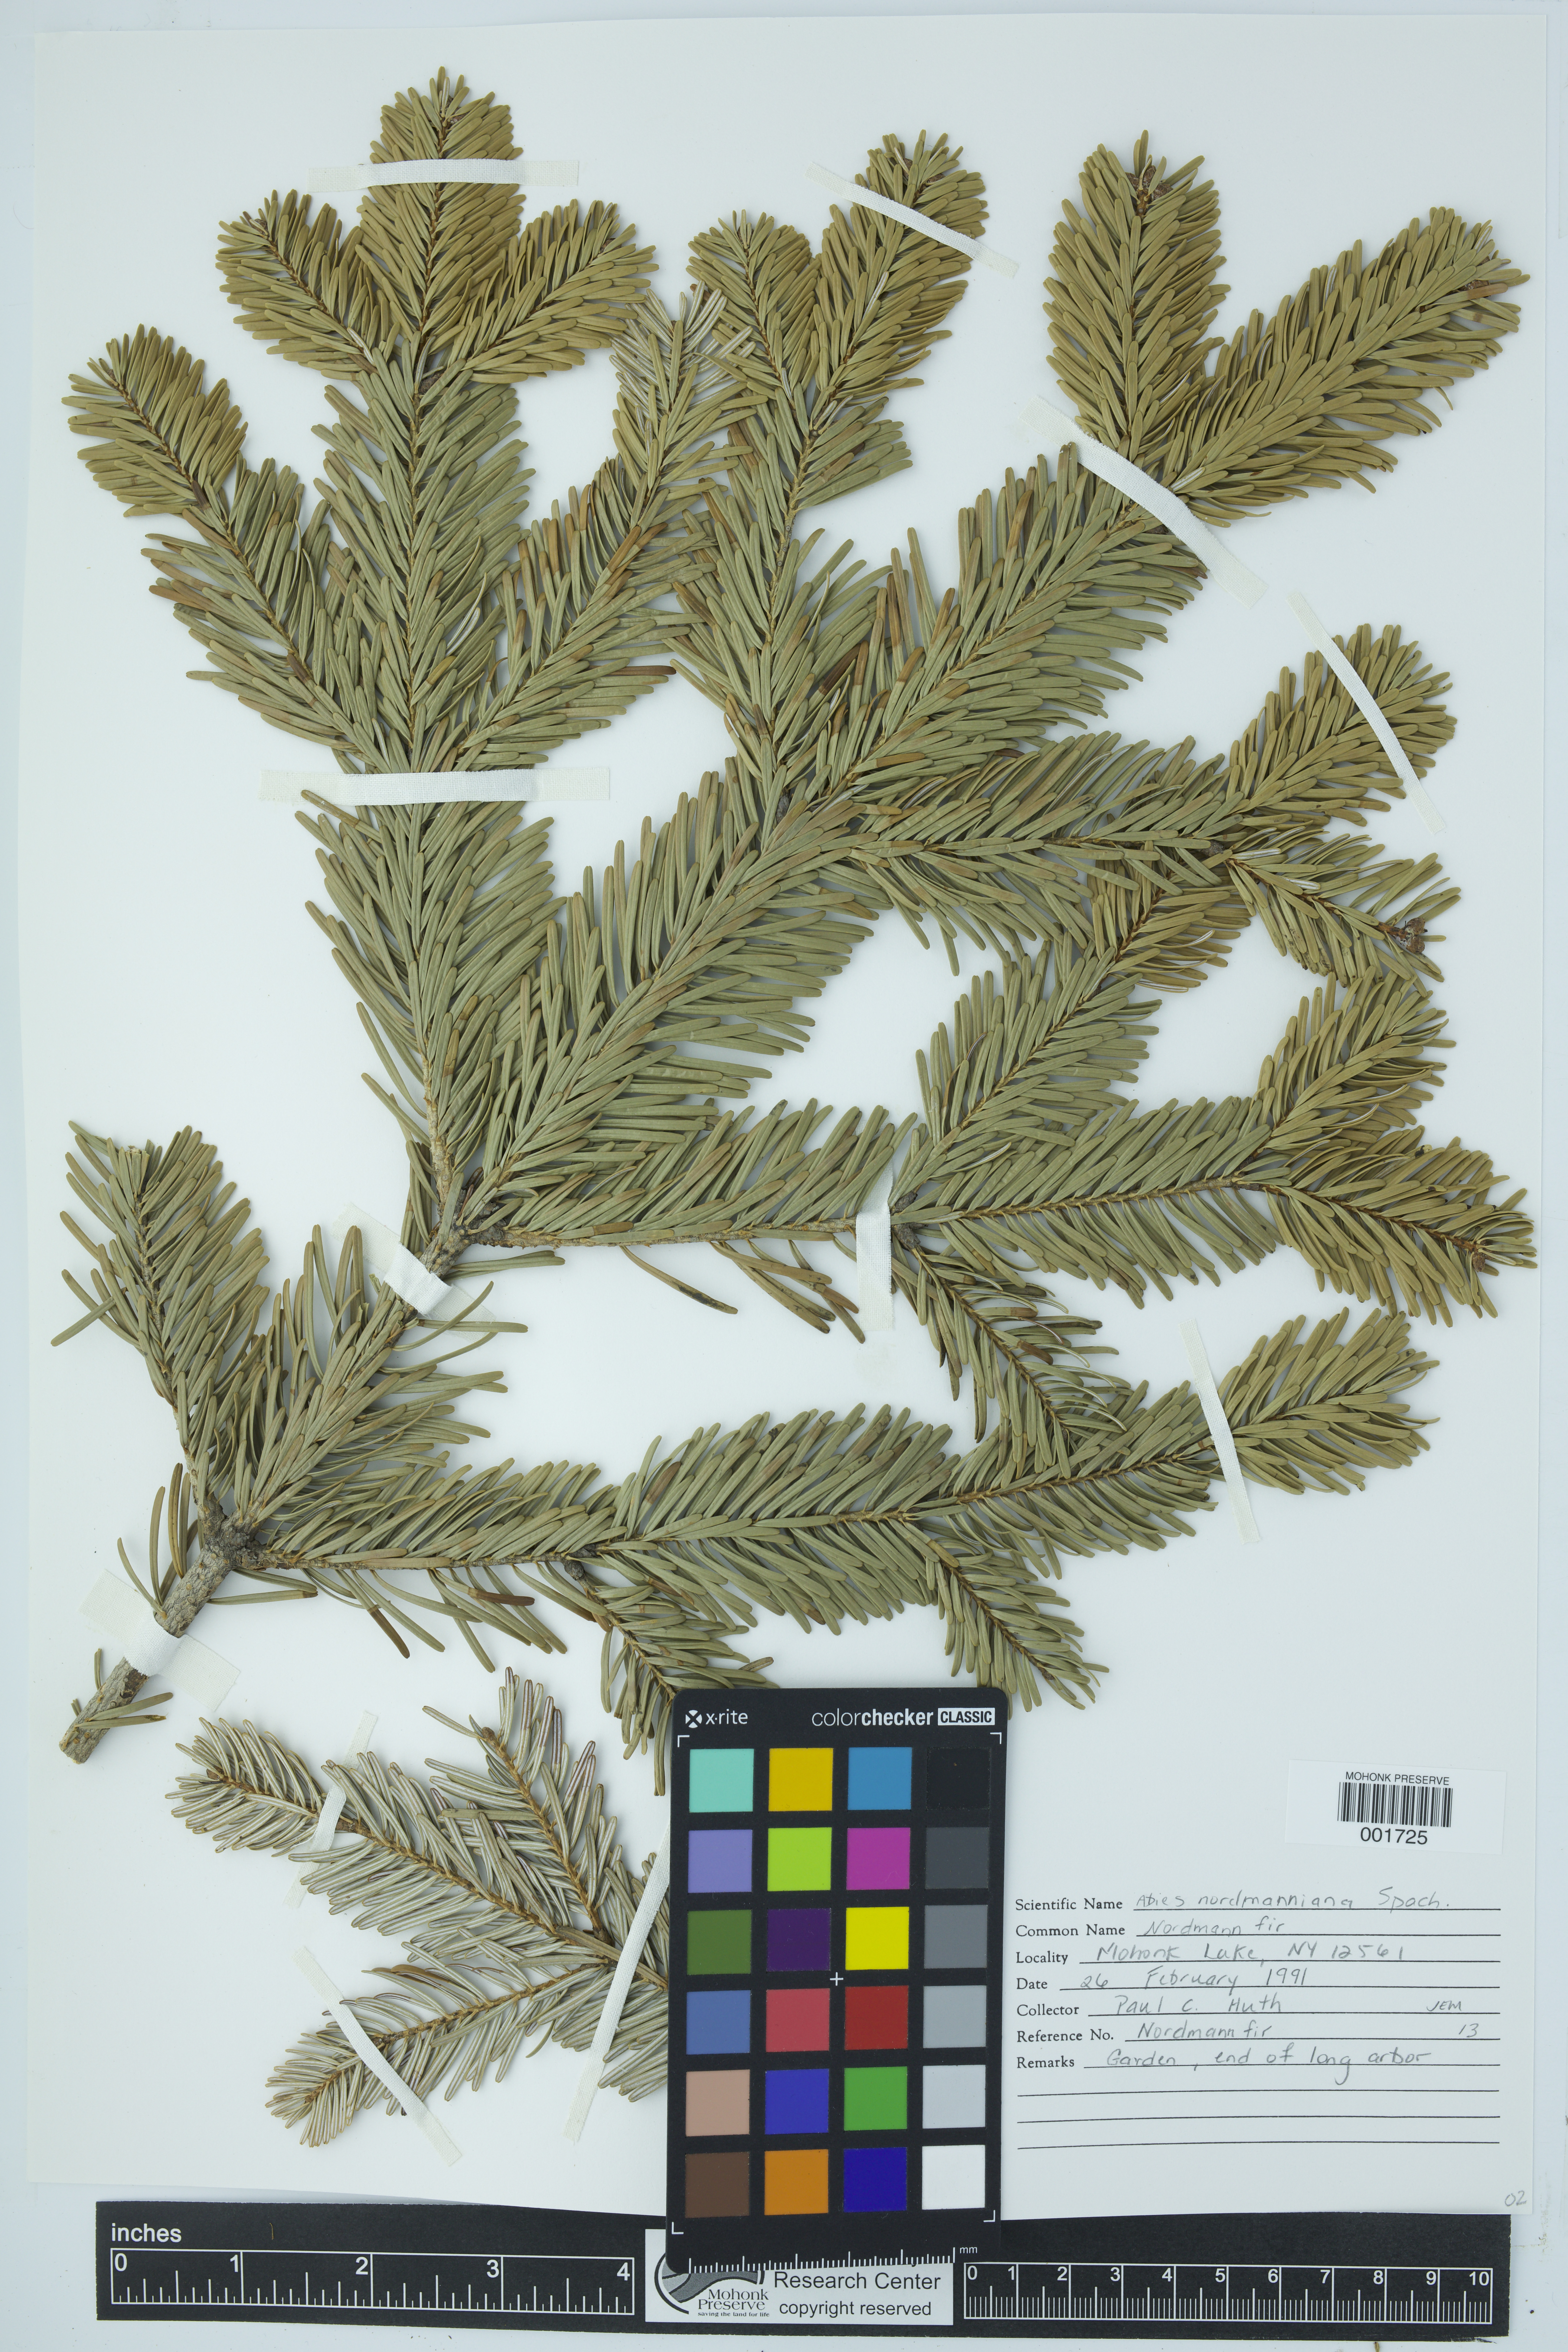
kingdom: Plantae
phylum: Tracheophyta
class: Pinopsida
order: Pinales
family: Pinaceae
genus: Abies
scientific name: Abies nordmanniana
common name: Caucasian fir
